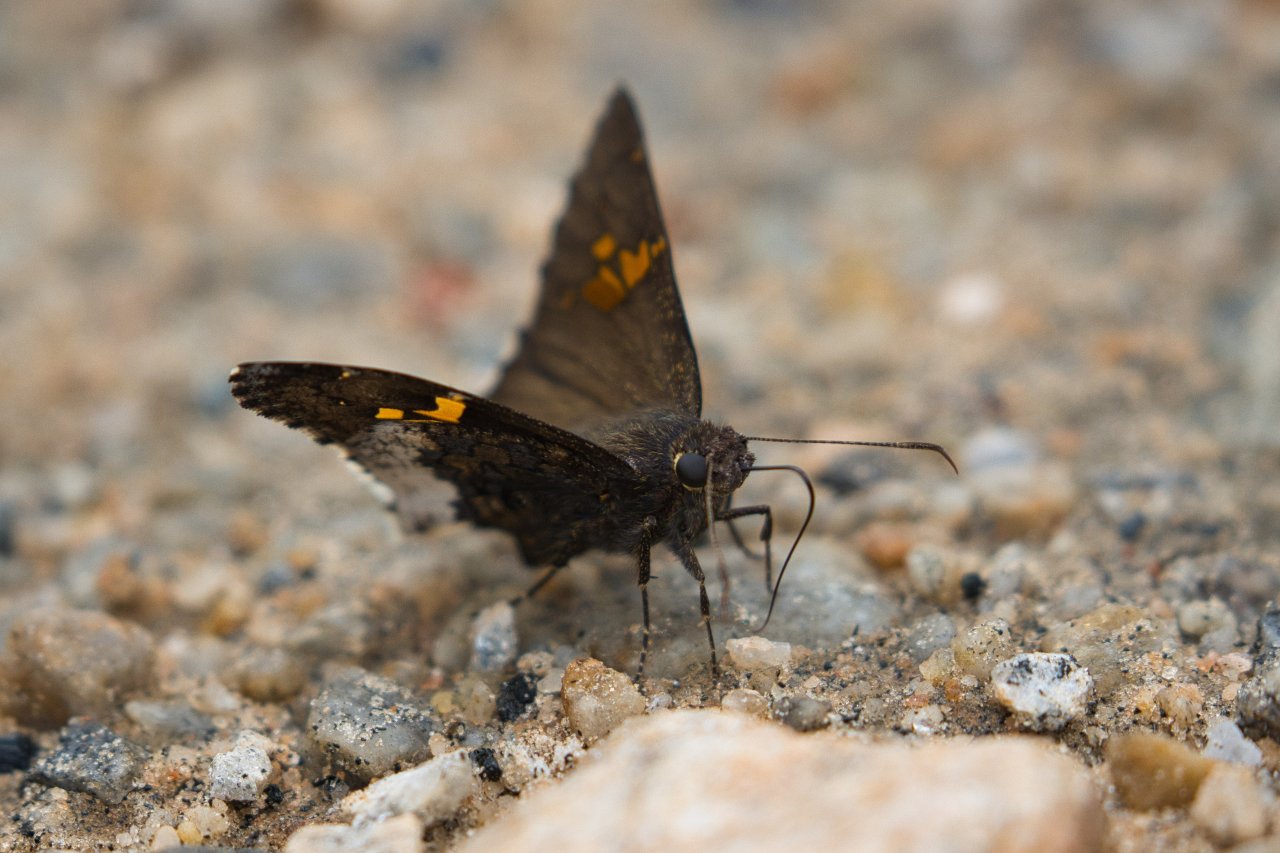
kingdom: Animalia
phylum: Arthropoda
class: Insecta
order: Lepidoptera
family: Hesperiidae
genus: Achalarus
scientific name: Achalarus lyciades
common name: Hoary Edge
